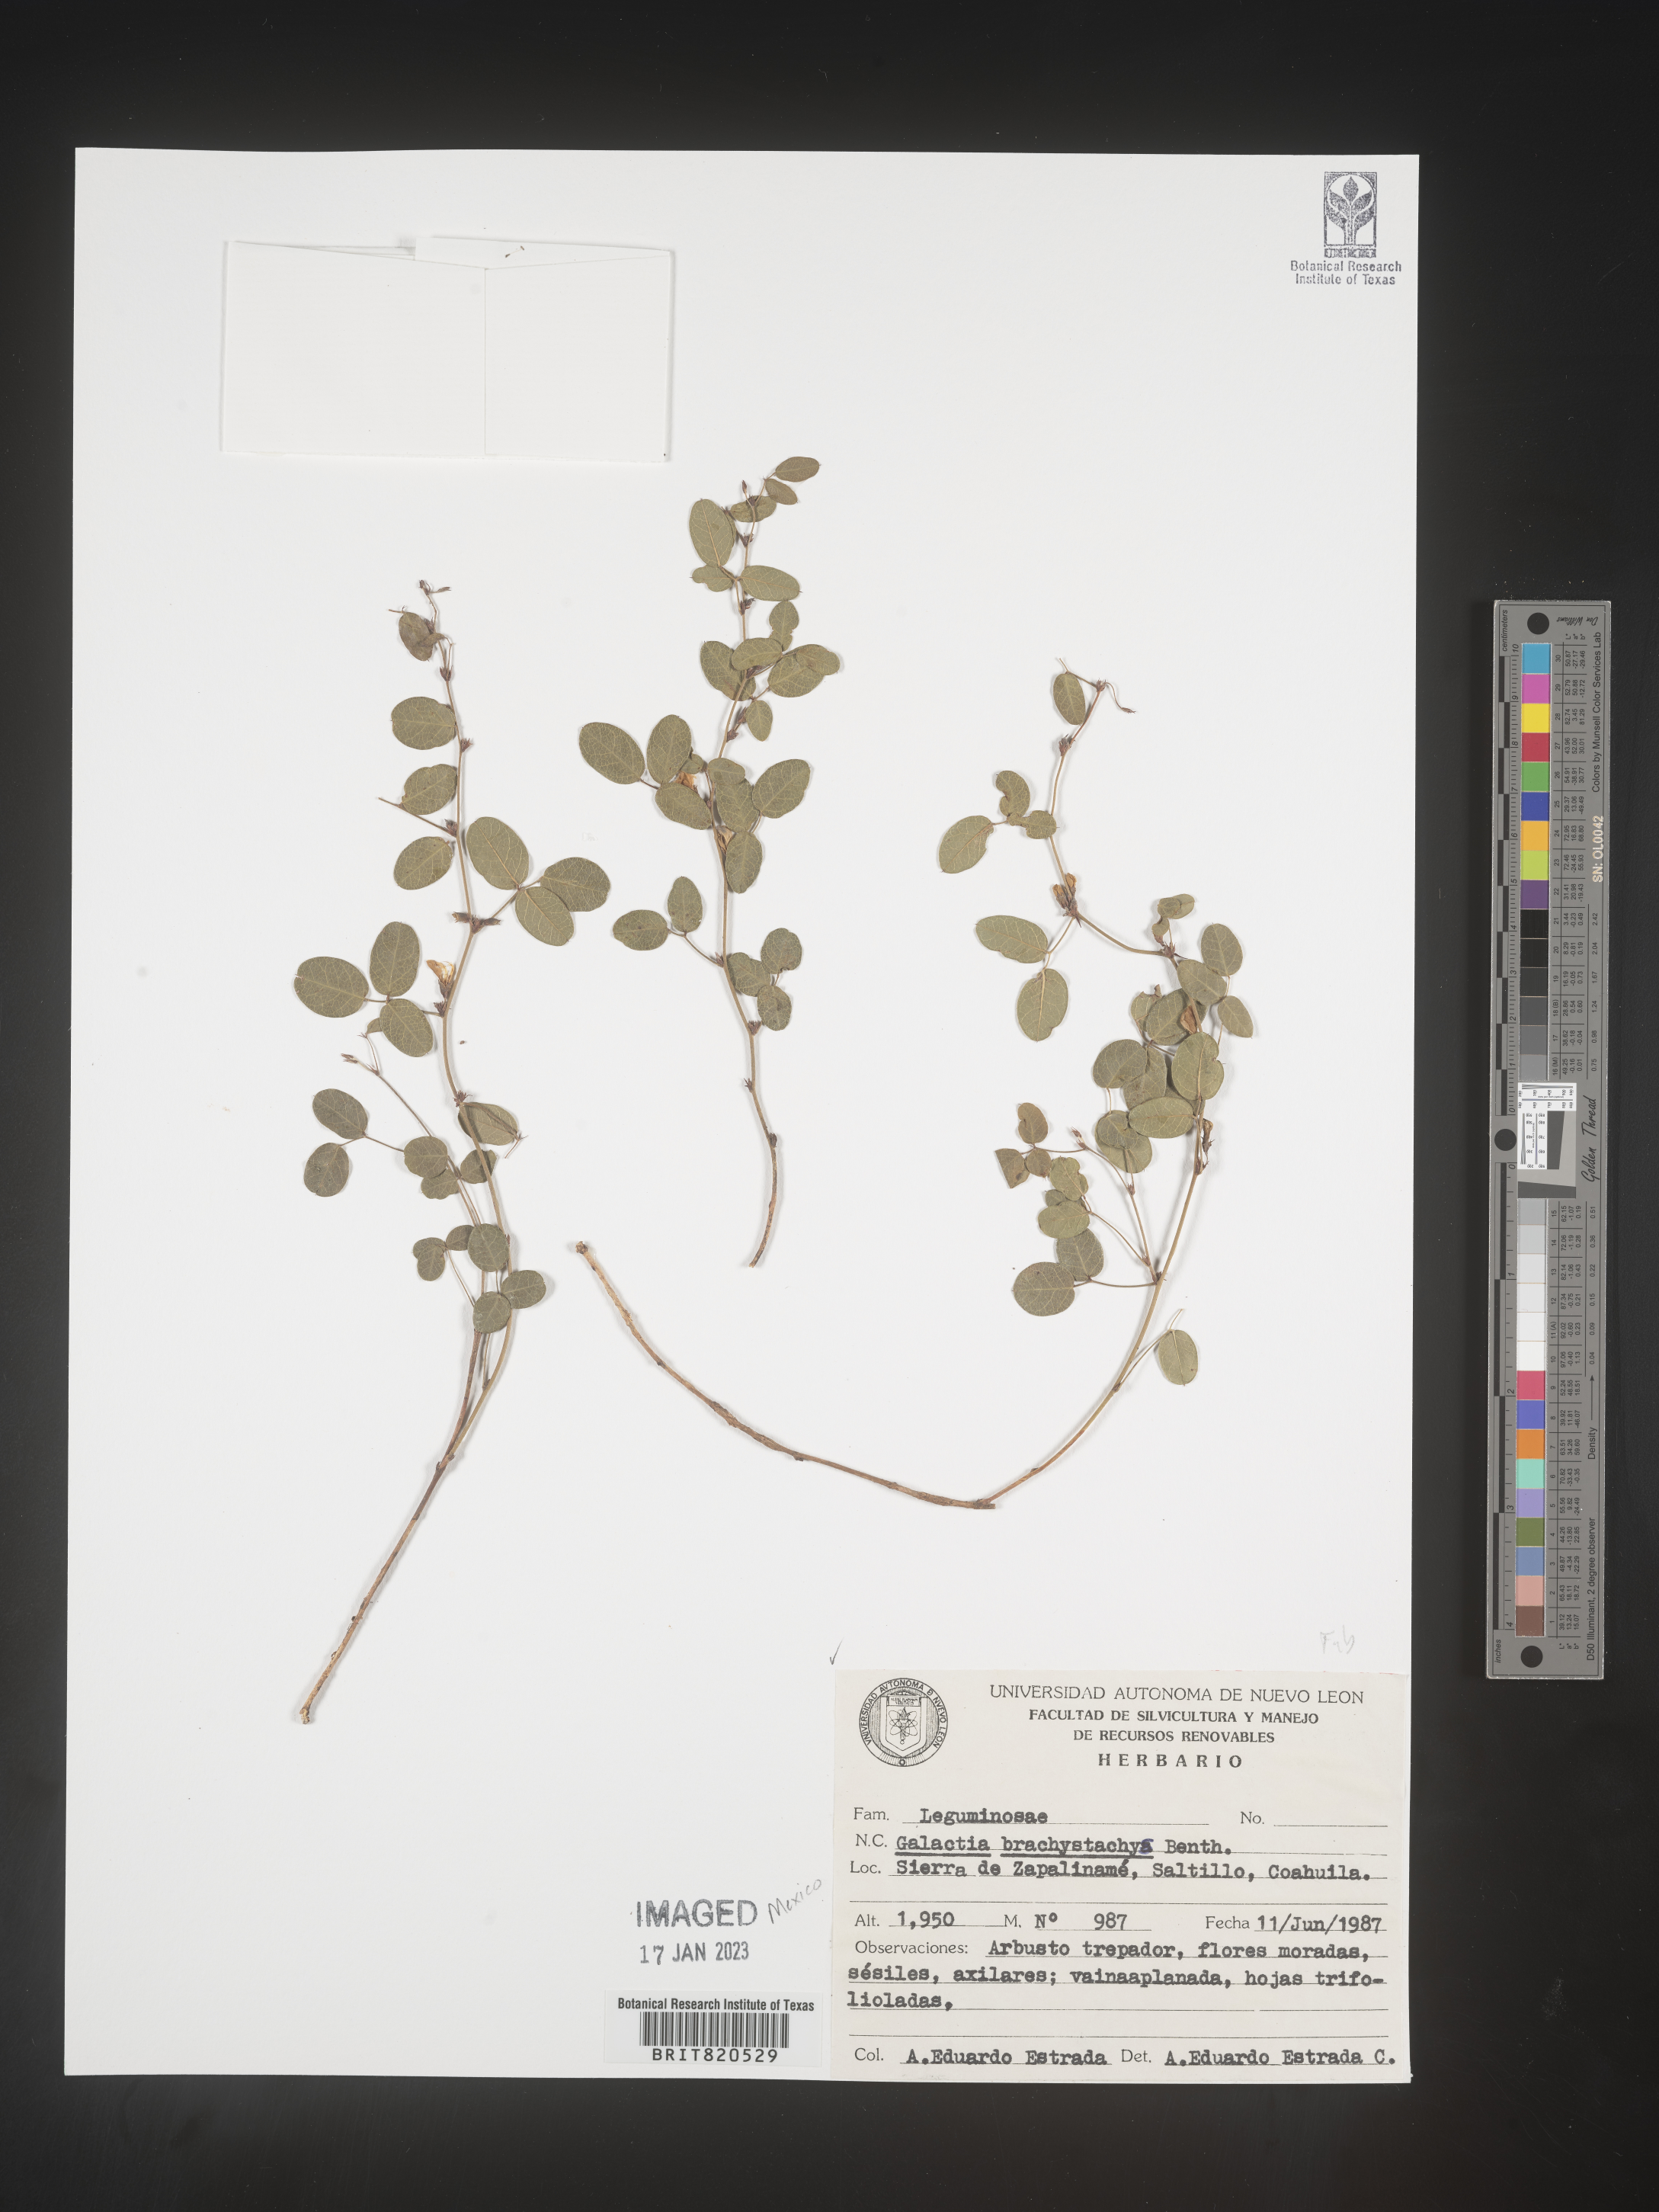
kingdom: Plantae
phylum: Tracheophyta
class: Magnoliopsida
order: Fabales
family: Fabaceae
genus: Nanogalactia
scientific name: Nanogalactia brachystachys
